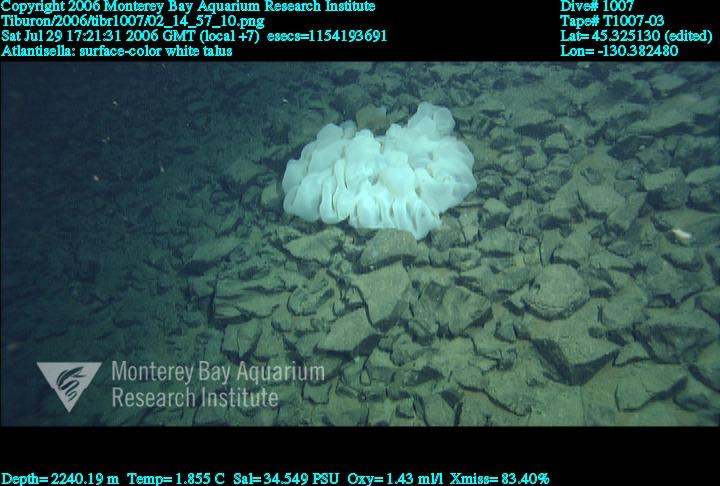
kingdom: Animalia
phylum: Porifera
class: Hexactinellida
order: Lyssacinosida
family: Euplectellidae
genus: Atlantisella
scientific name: Atlantisella
